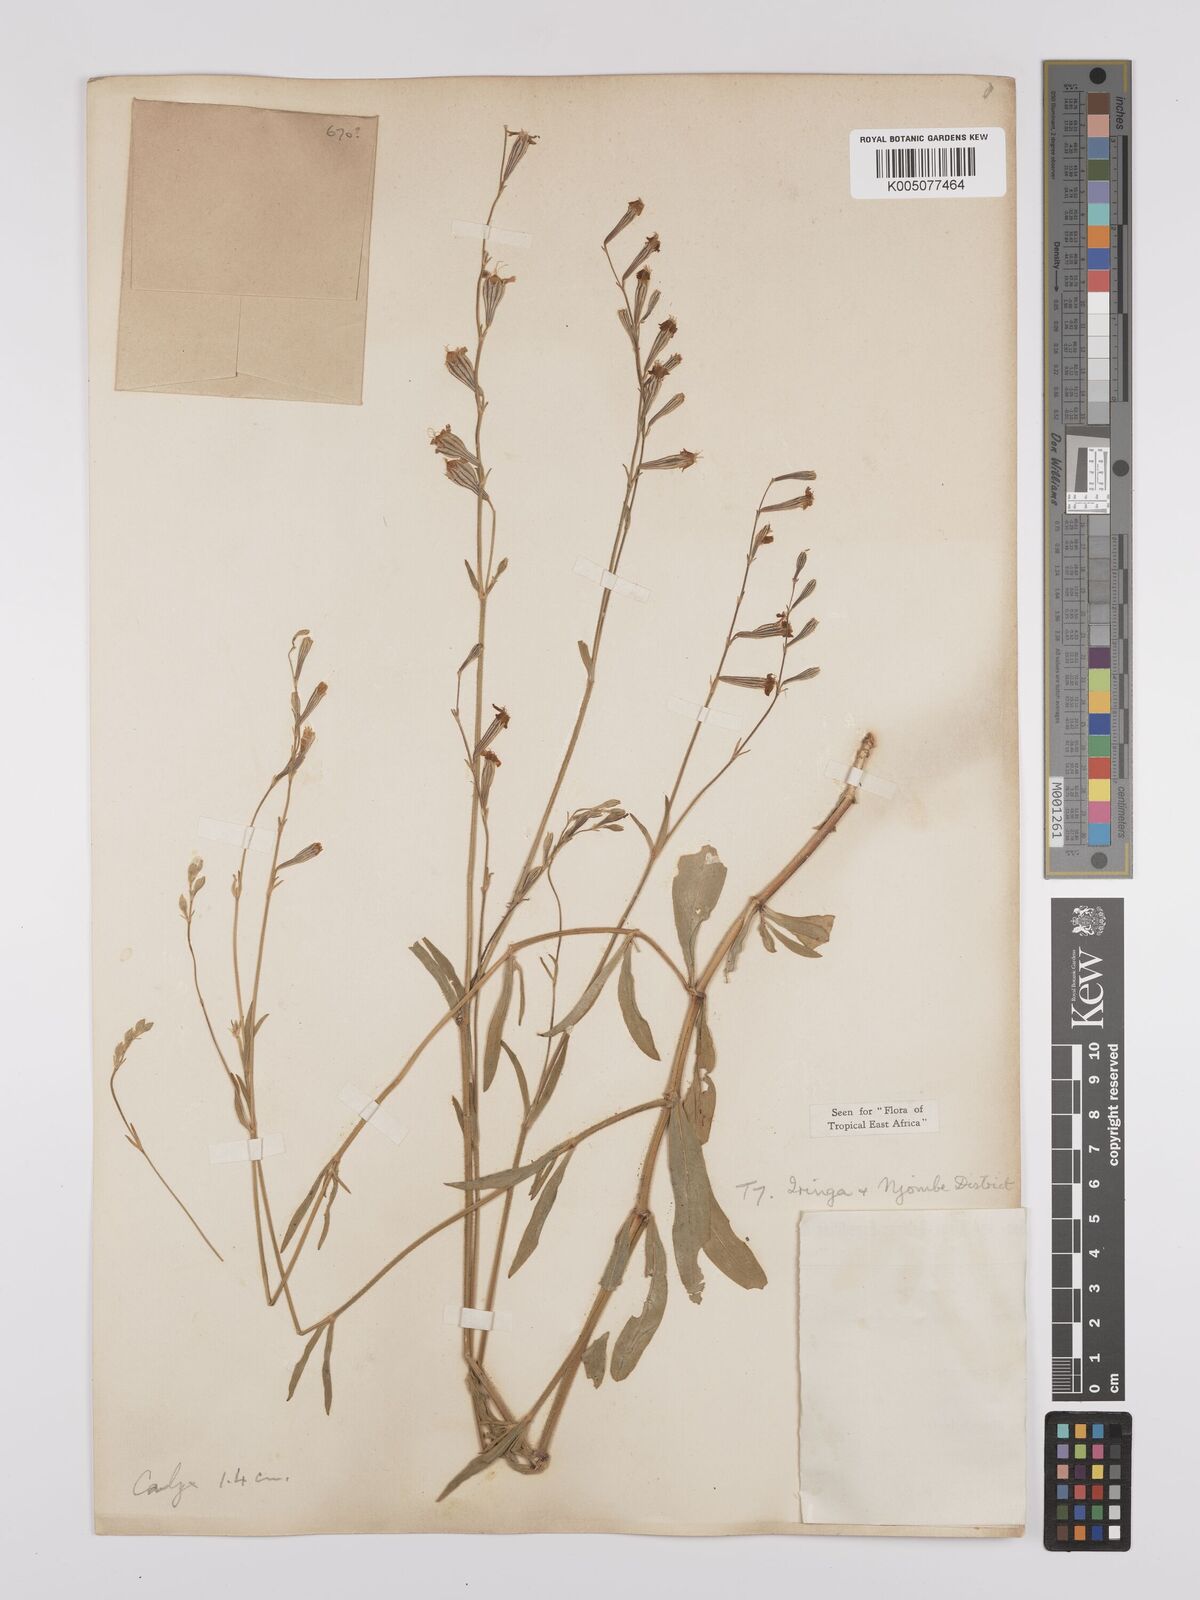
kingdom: Plantae
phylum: Tracheophyta
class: Magnoliopsida
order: Caryophyllales
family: Caryophyllaceae
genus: Silene
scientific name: Silene burchellii
